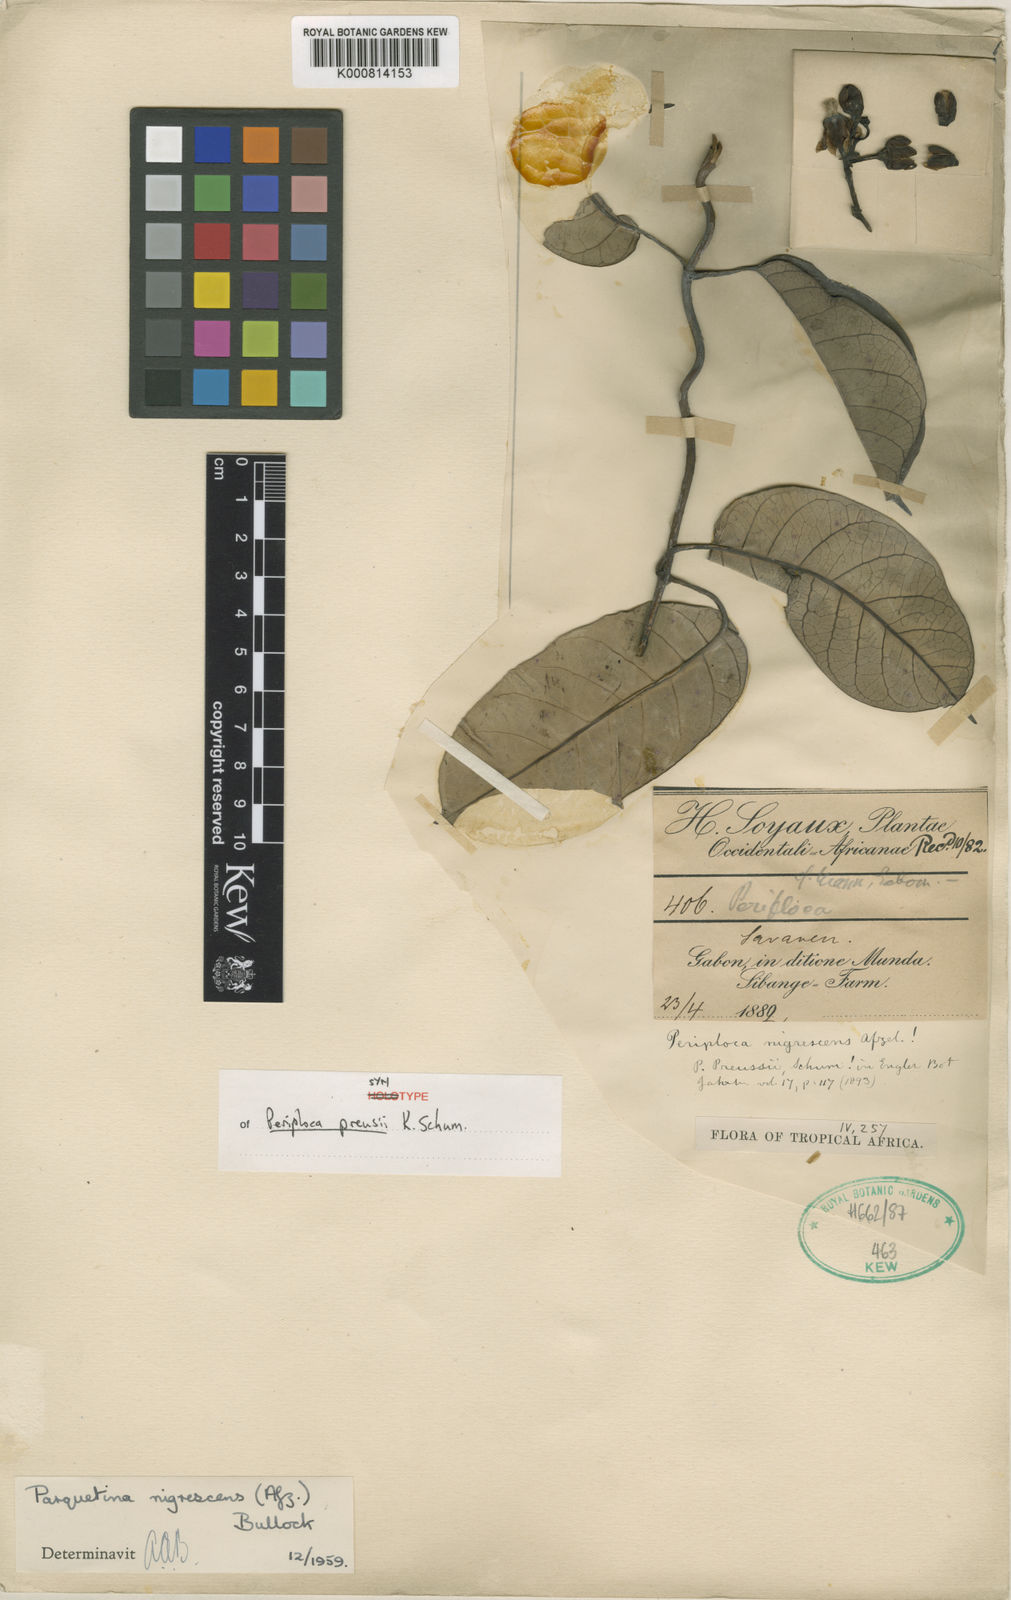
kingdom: Plantae
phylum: Tracheophyta
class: Magnoliopsida
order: Gentianales
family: Apocynaceae
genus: Cryptolepis
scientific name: Cryptolepis nigrescens
